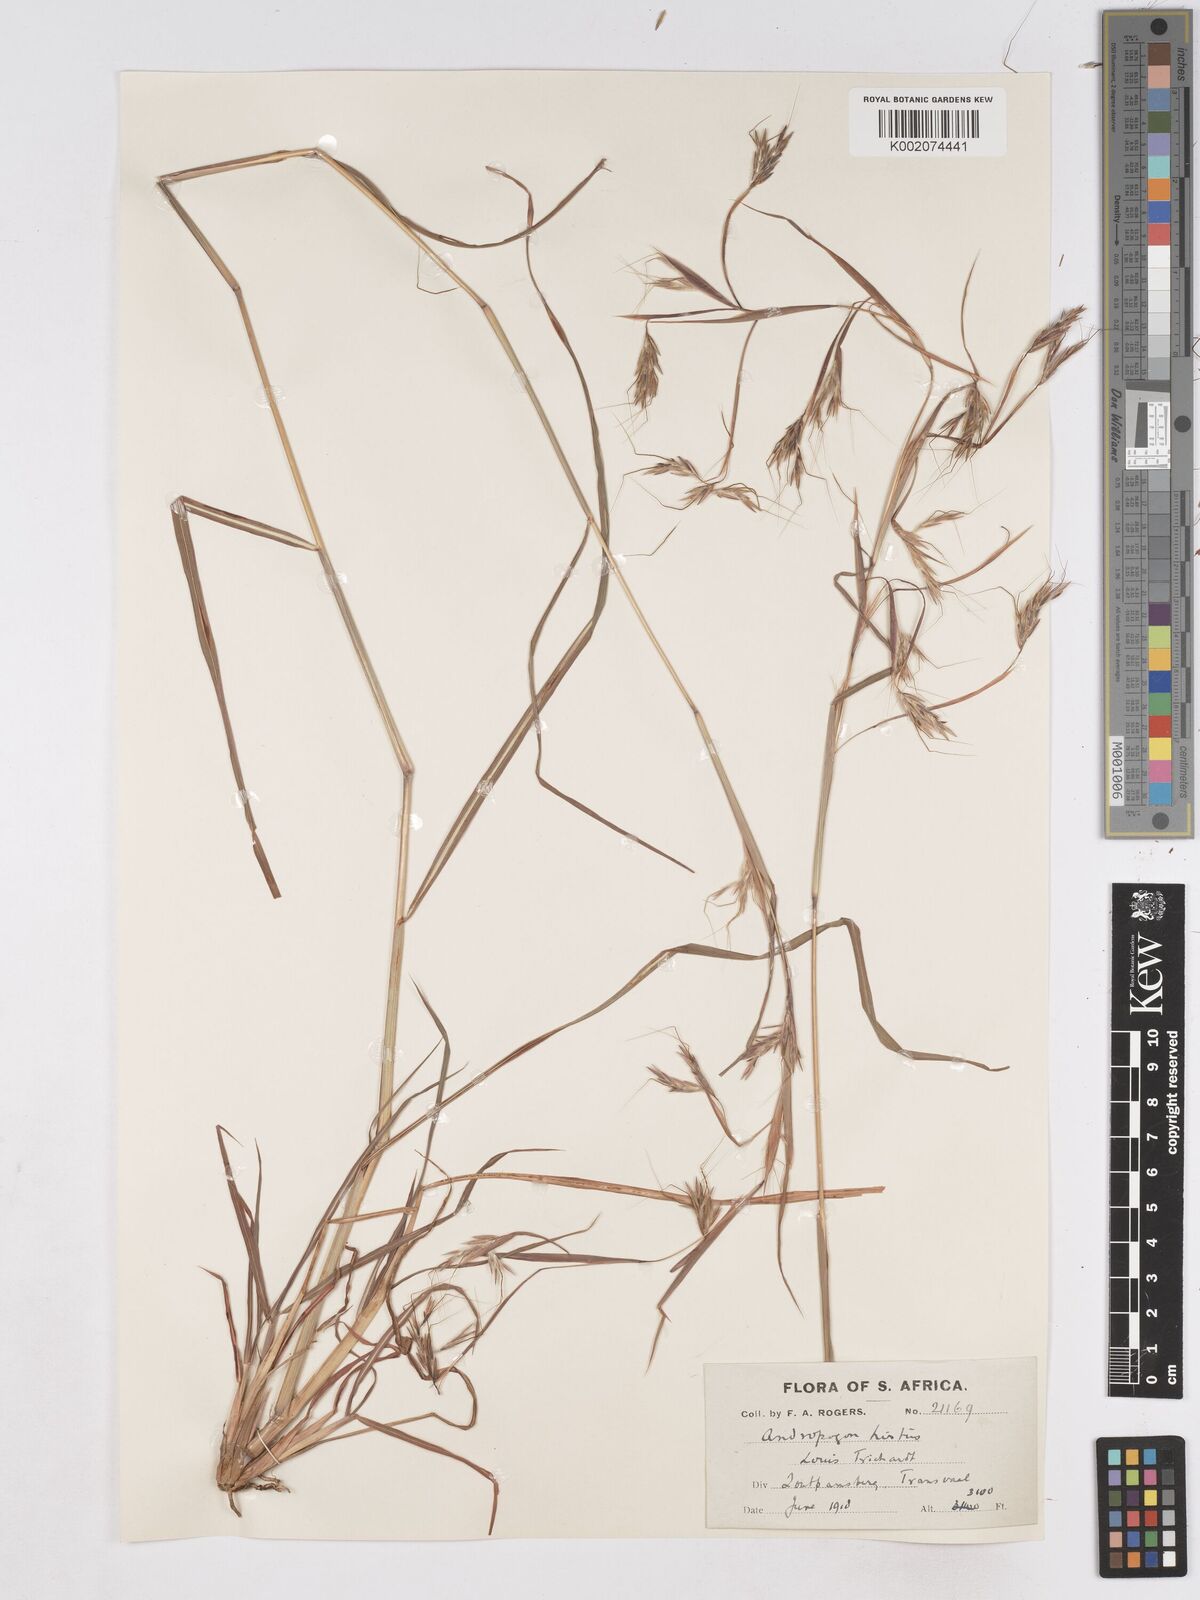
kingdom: Plantae
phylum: Tracheophyta
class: Liliopsida
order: Poales
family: Poaceae
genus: Hyparrhenia
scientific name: Hyparrhenia hirta
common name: Thatching grass
